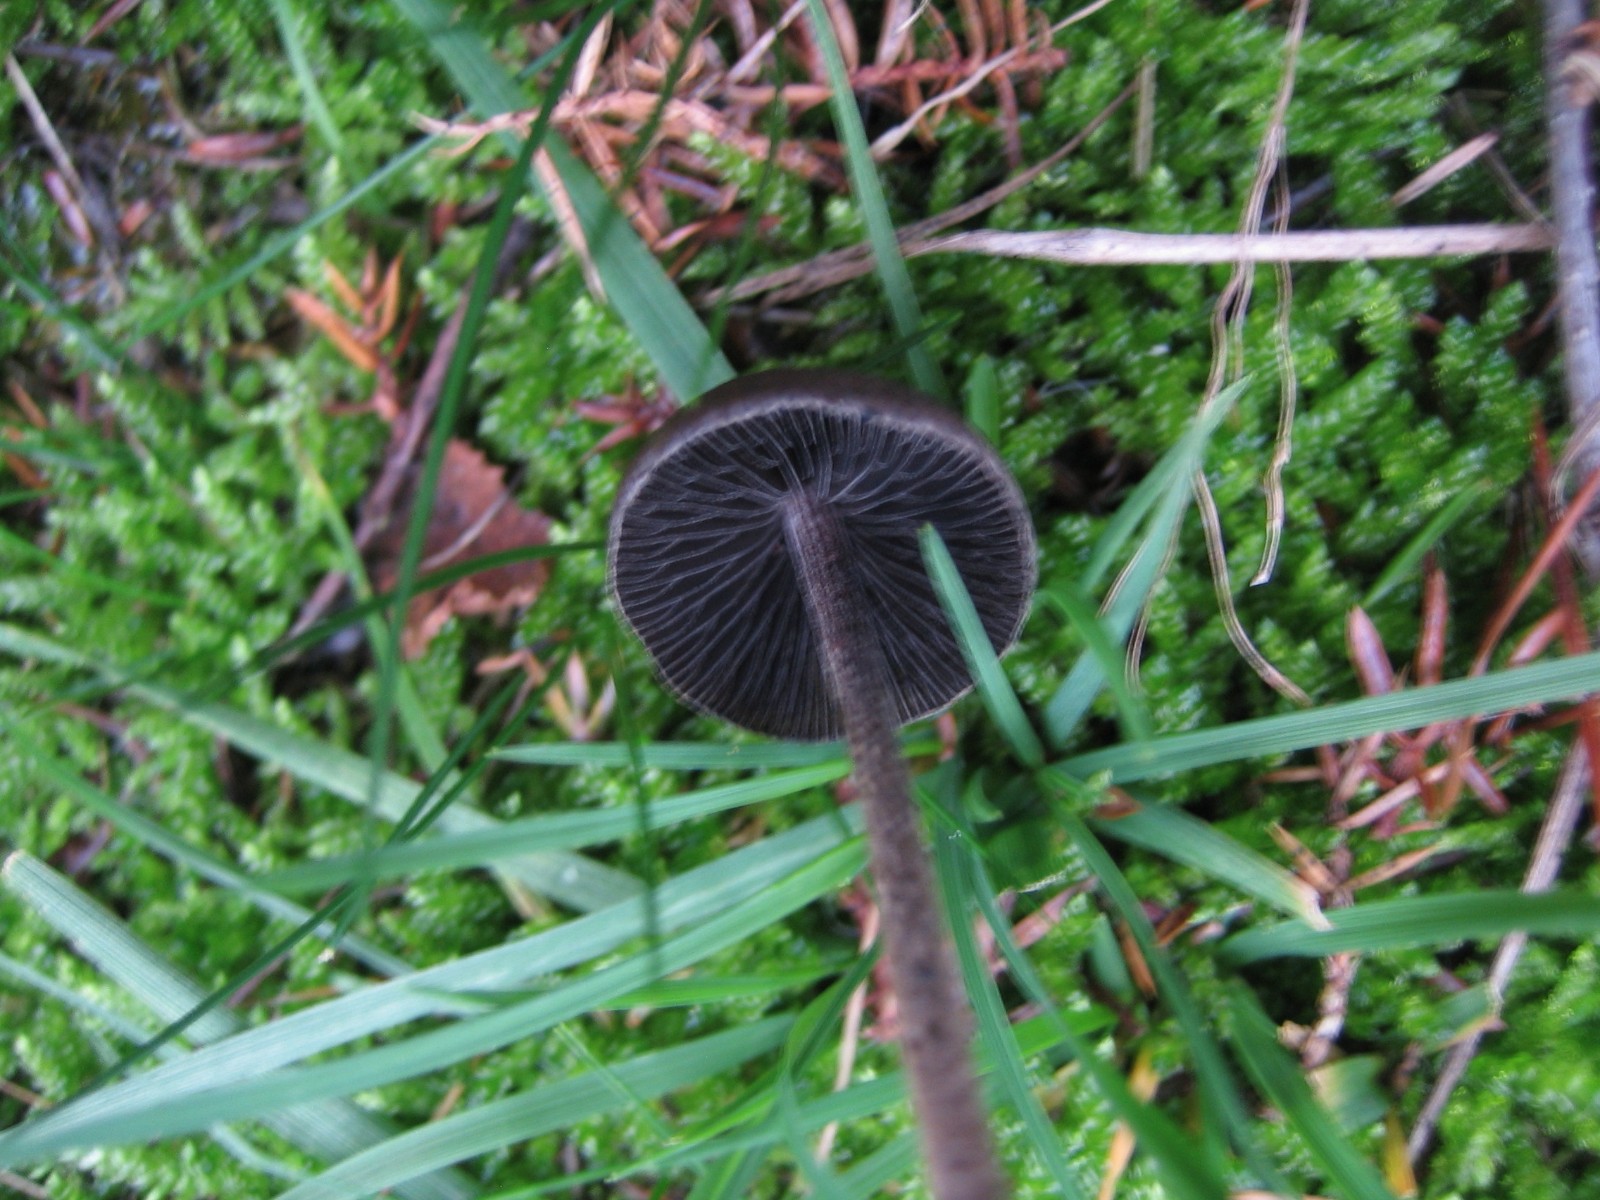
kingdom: Fungi
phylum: Basidiomycota
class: Agaricomycetes
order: Agaricales
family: Bolbitiaceae
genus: Panaeolus
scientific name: Panaeolus acuminatus
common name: høj glanshat
